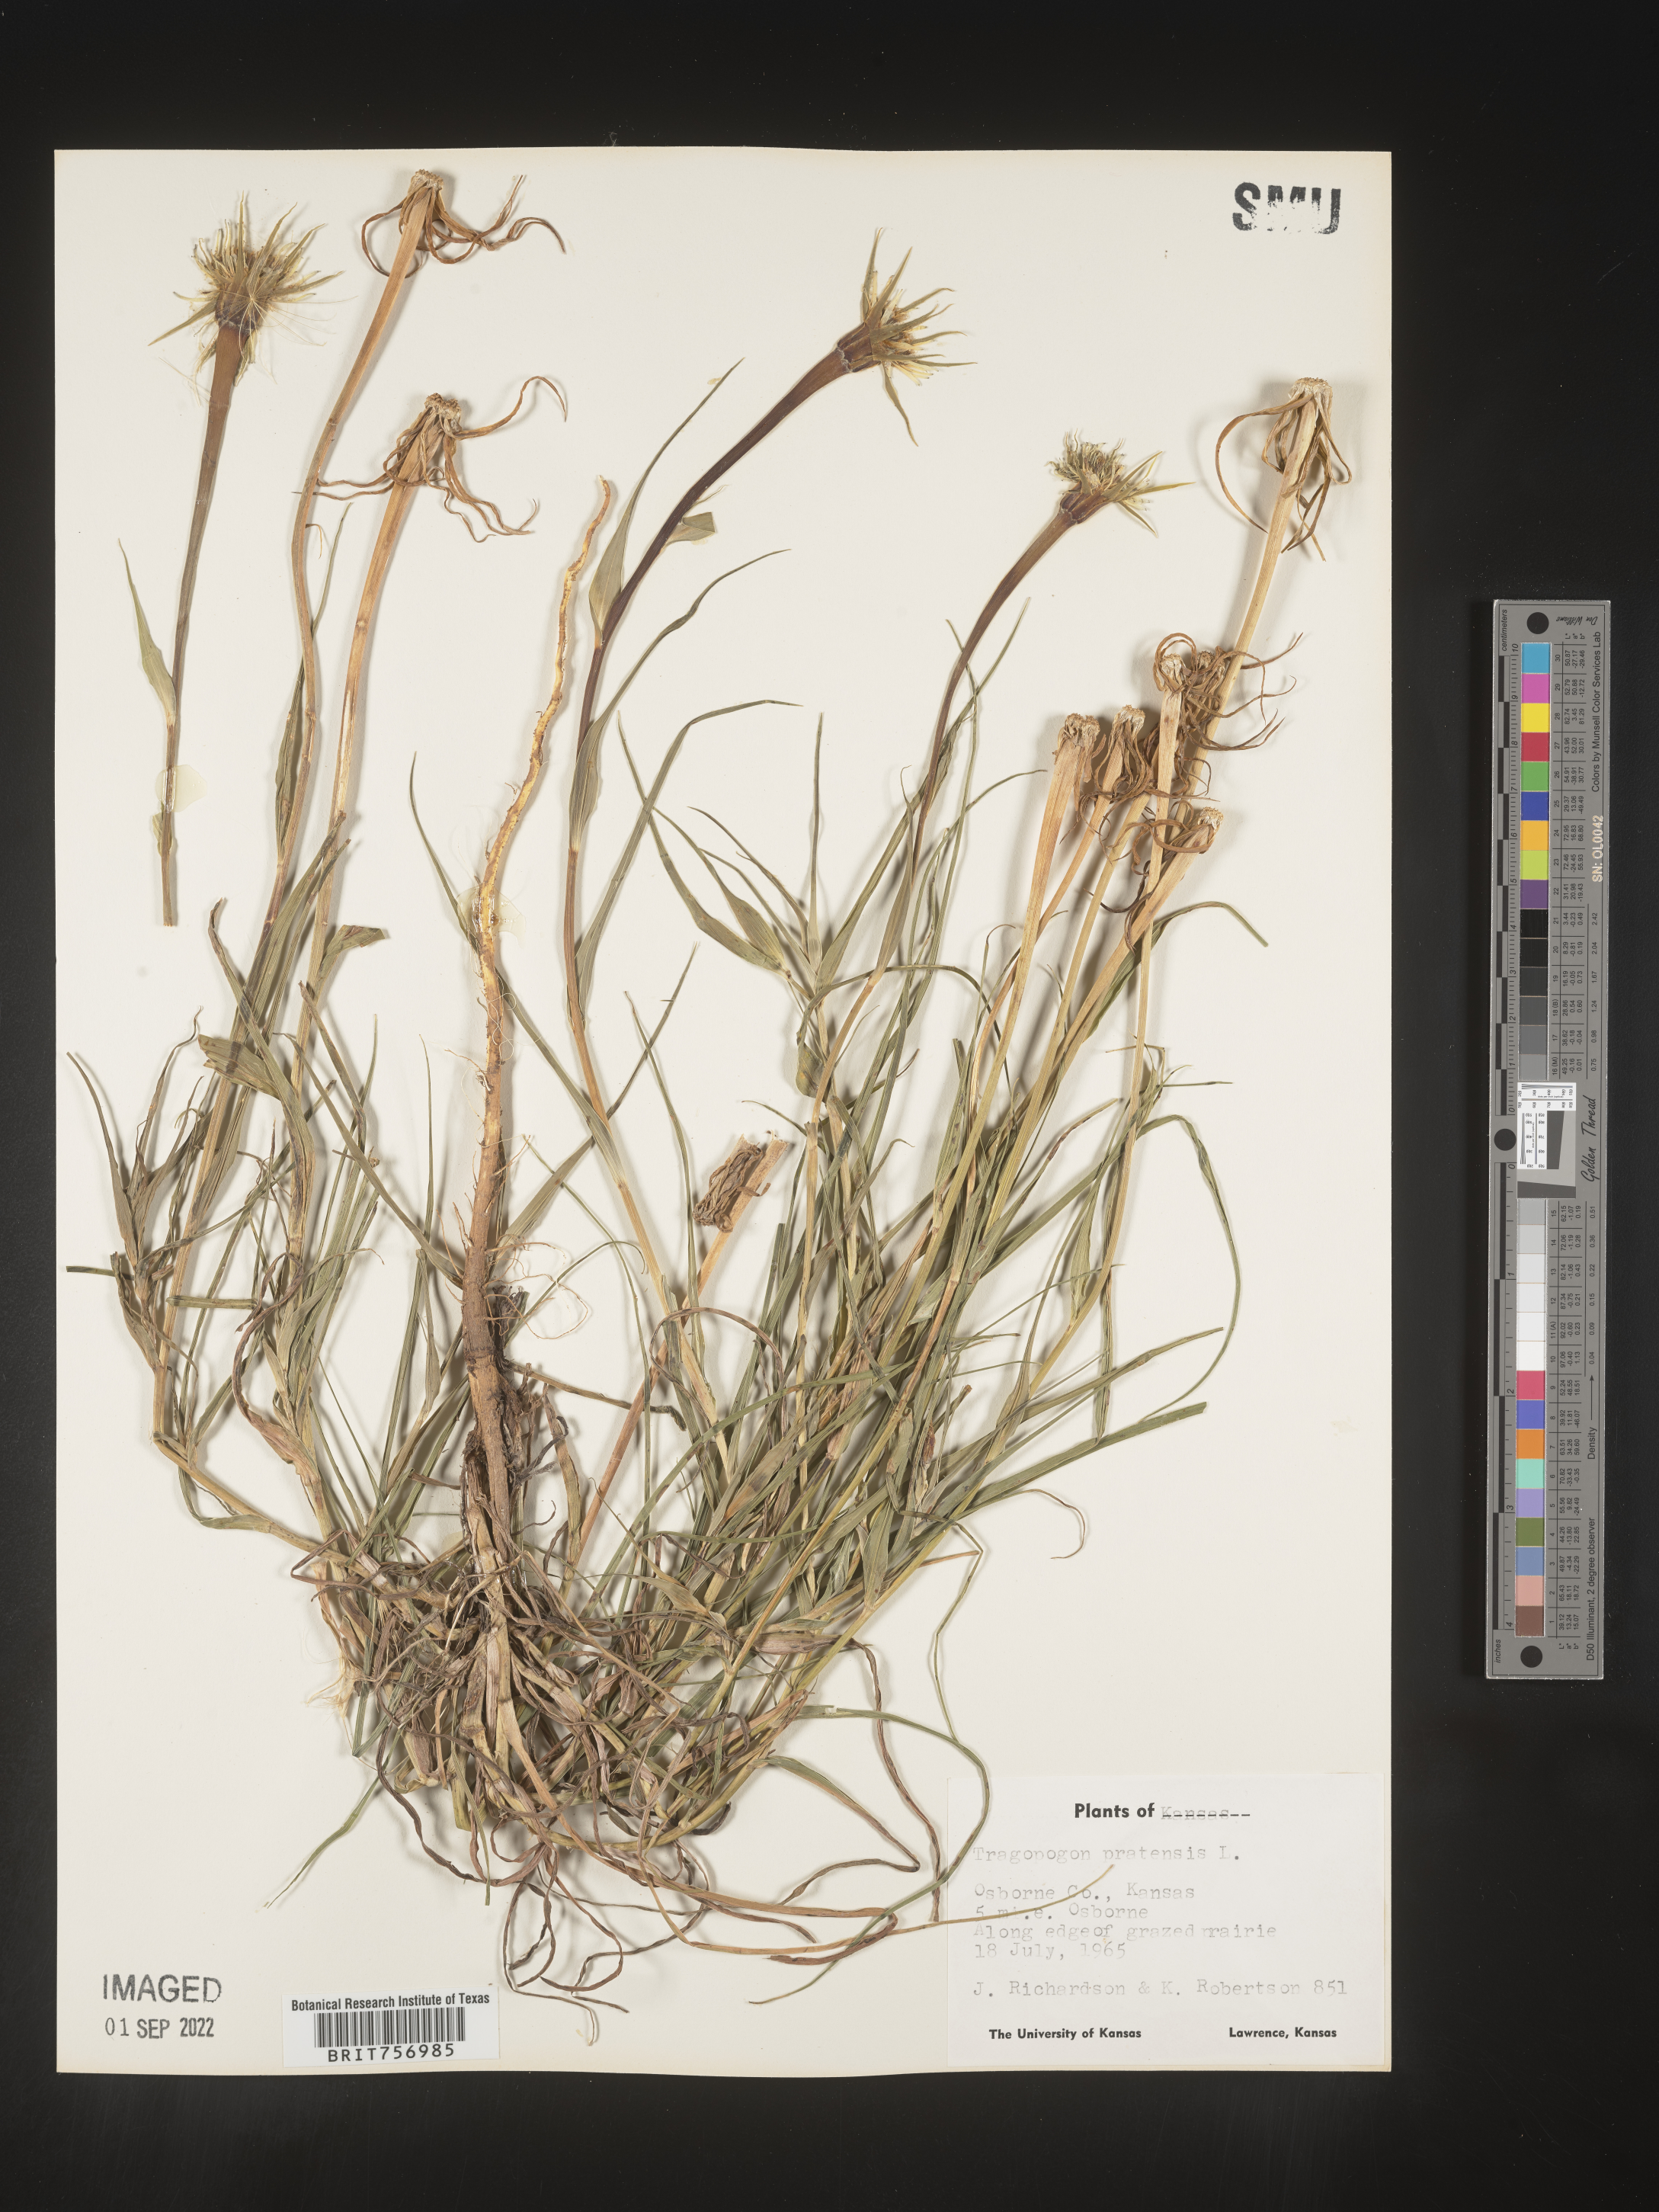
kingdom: Plantae
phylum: Tracheophyta
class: Magnoliopsida
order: Asterales
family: Asteraceae
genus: Tragopogon
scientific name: Tragopogon pratensis
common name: Goat's-beard
